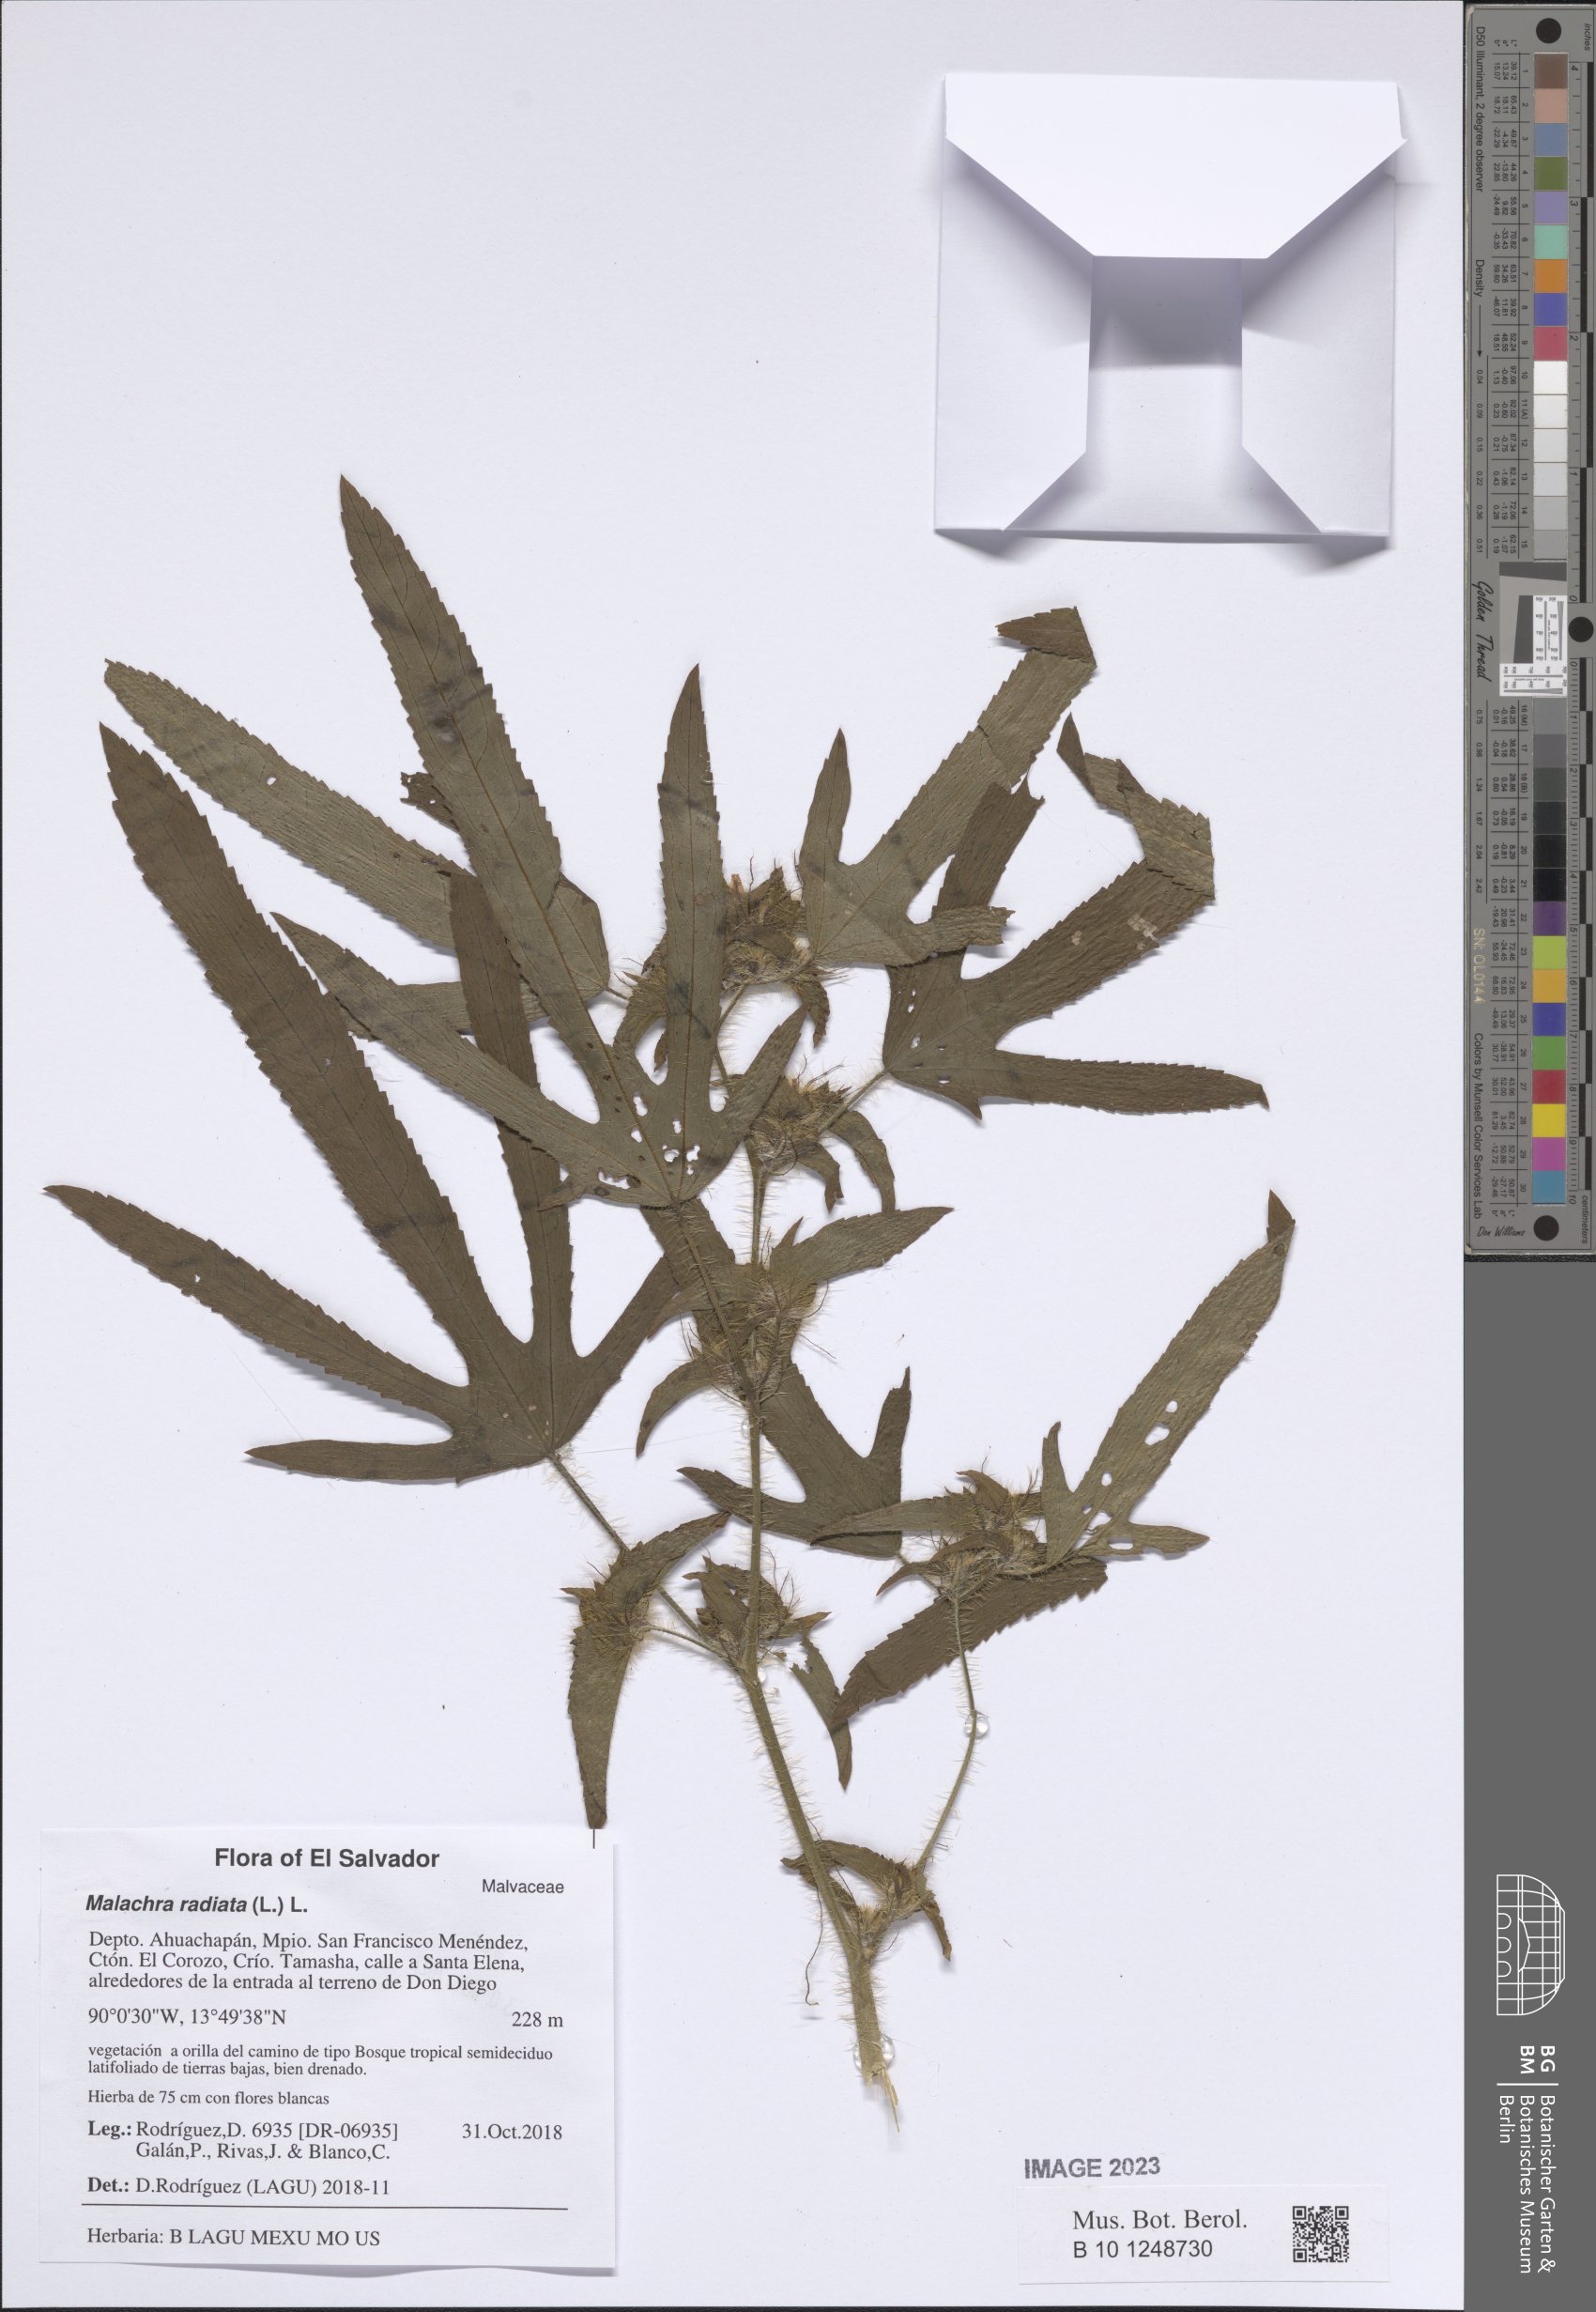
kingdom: Plantae
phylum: Tracheophyta
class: Magnoliopsida
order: Malvales
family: Malvaceae
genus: Malachra
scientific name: Malachra radiata
